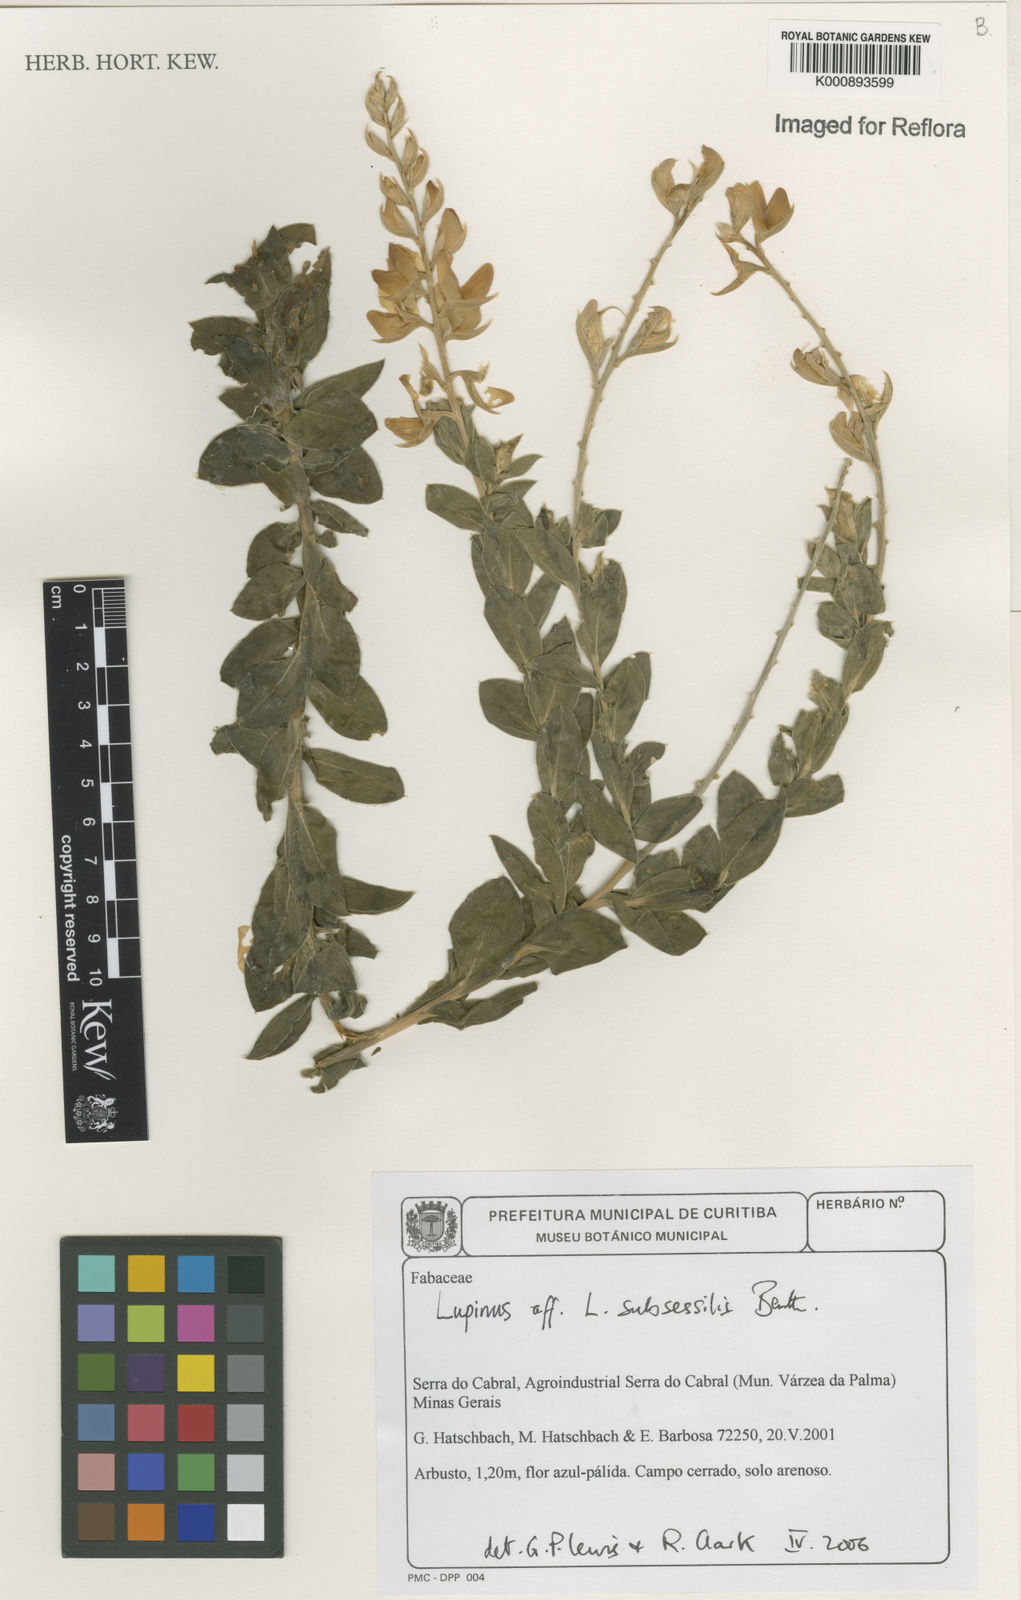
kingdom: Plantae
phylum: Tracheophyta
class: Magnoliopsida
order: Fabales
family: Fabaceae
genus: Lupinus
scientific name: Lupinus subsessilis
